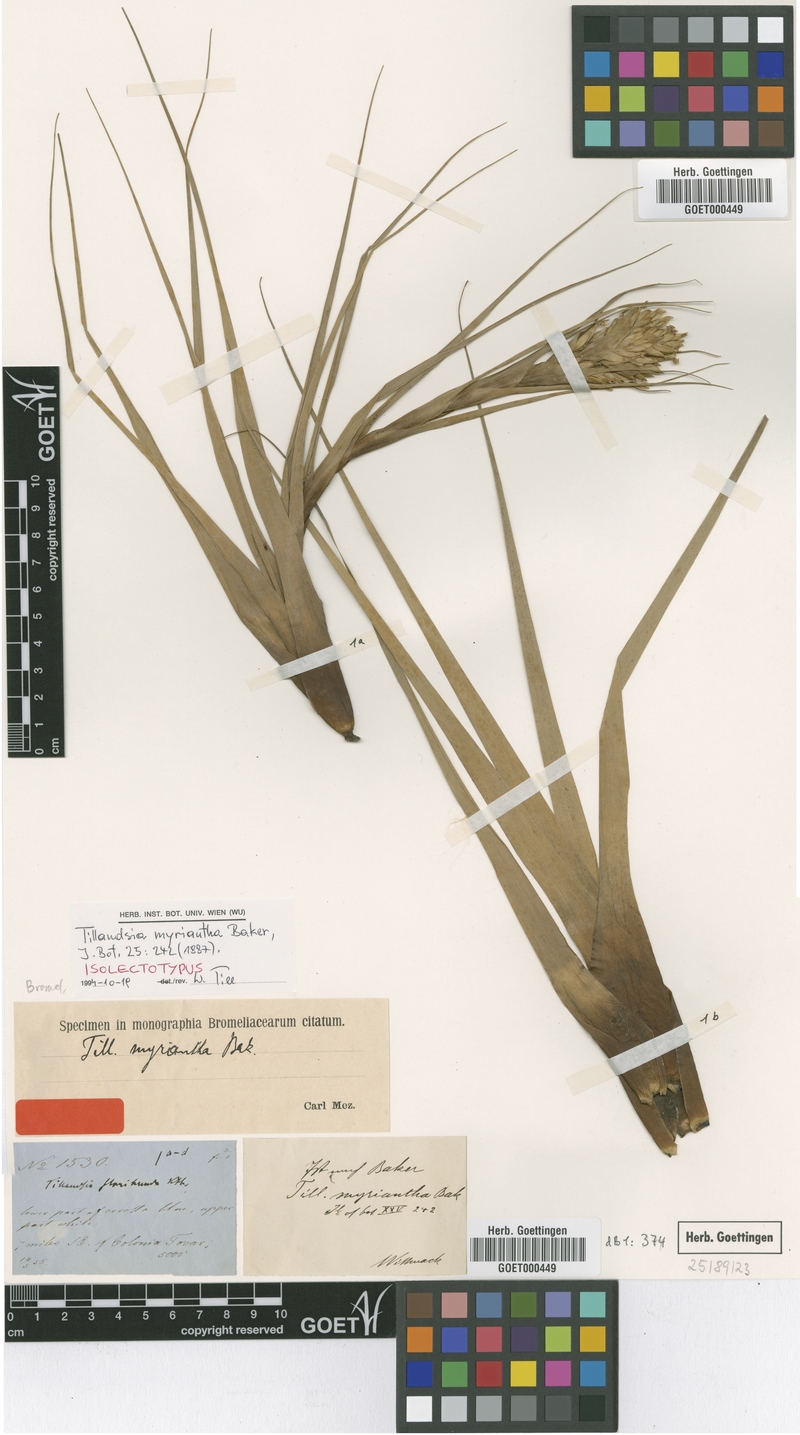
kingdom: Plantae
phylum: Tracheophyta
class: Liliopsida
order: Poales
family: Bromeliaceae
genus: Vriesea
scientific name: Vriesea myriantha
